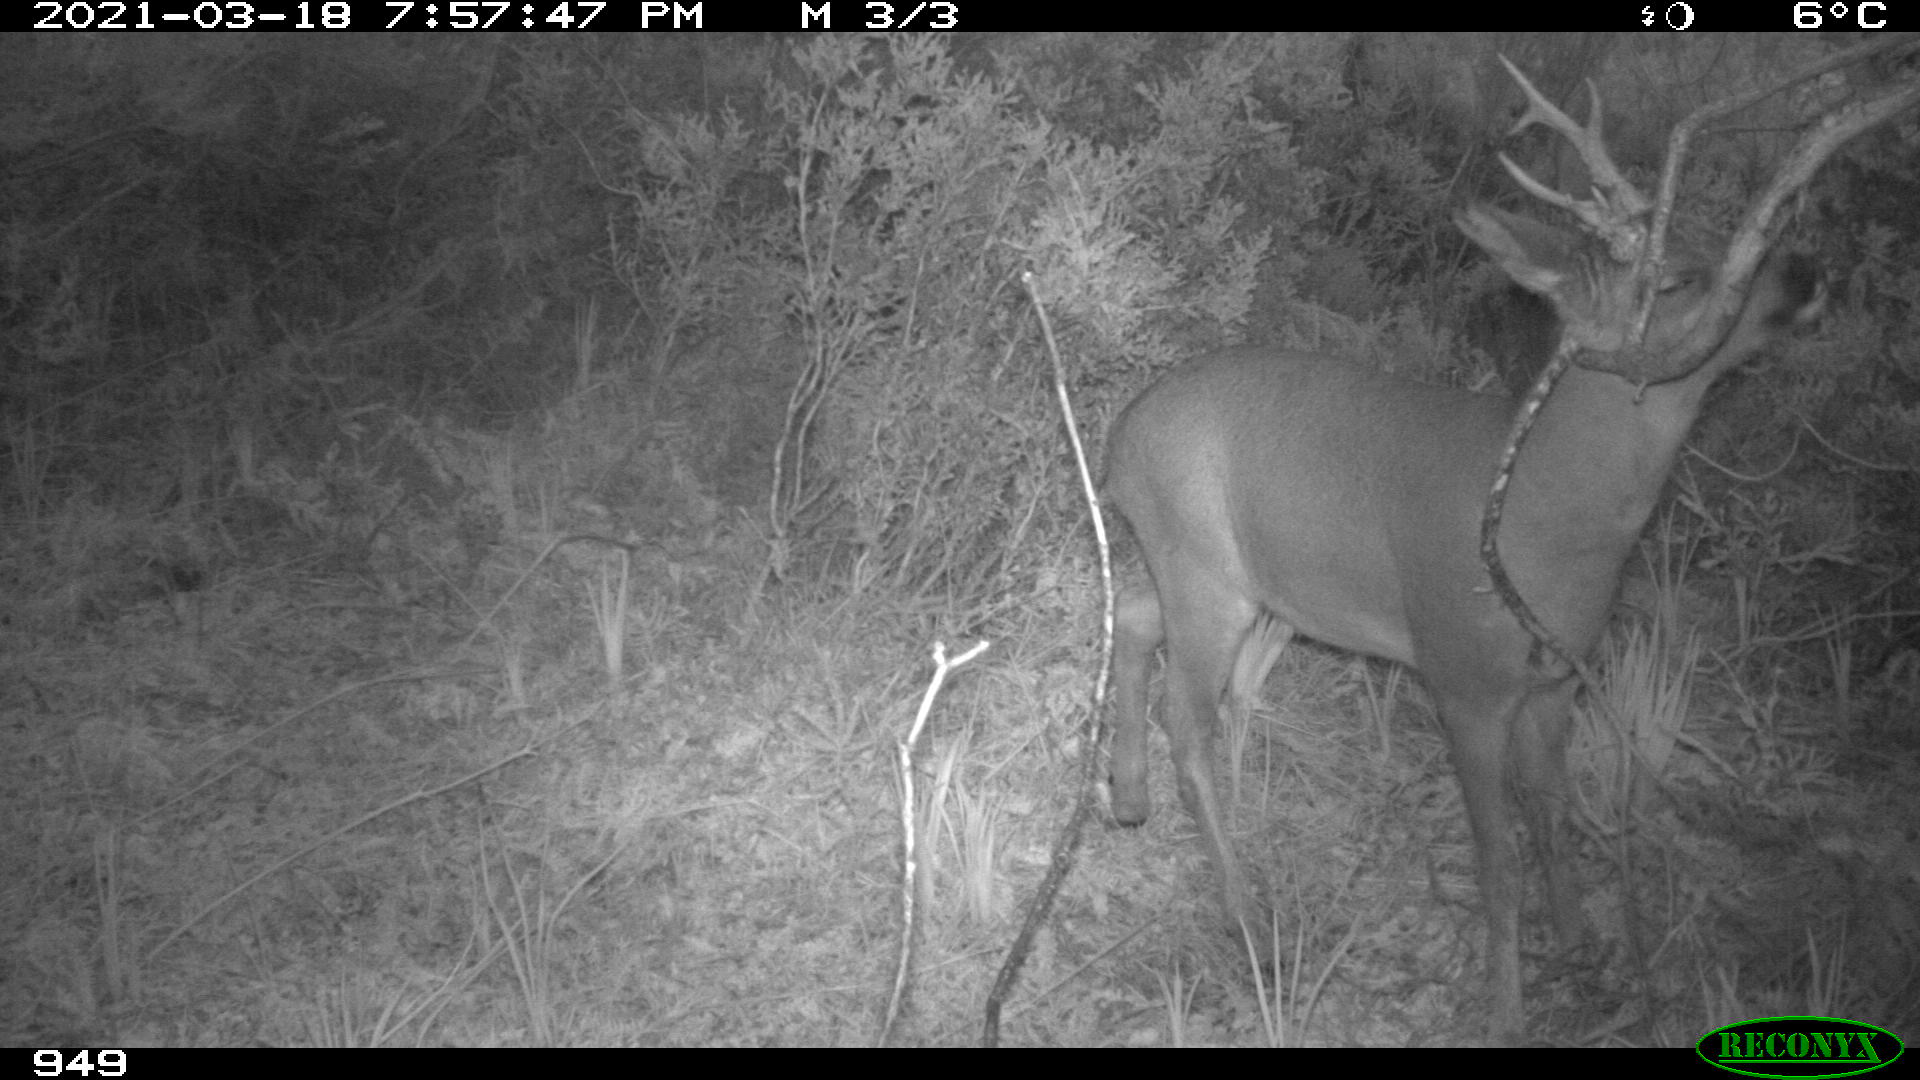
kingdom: Animalia
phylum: Chordata
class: Mammalia
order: Artiodactyla
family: Cervidae
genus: Capreolus
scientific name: Capreolus capreolus
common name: Western roe deer
